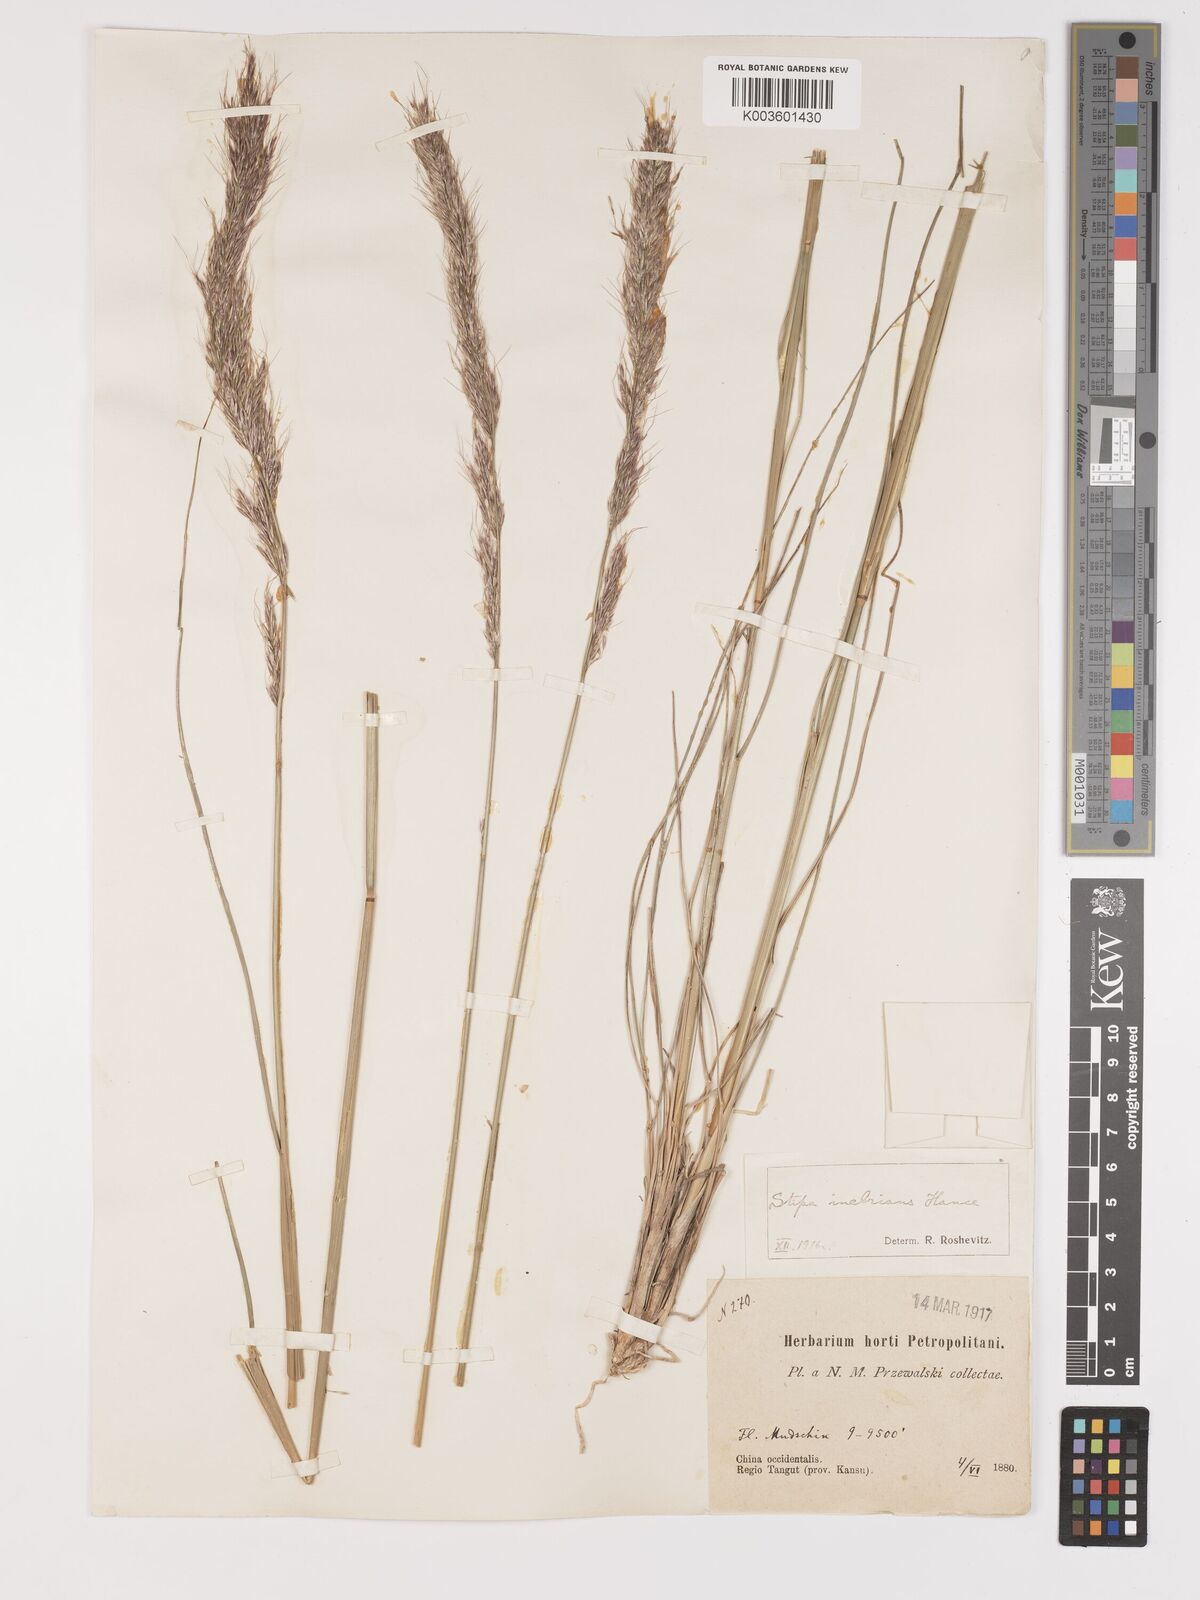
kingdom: Plantae
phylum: Tracheophyta
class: Liliopsida
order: Poales
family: Poaceae
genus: Achnatherum
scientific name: Achnatherum inebrians
